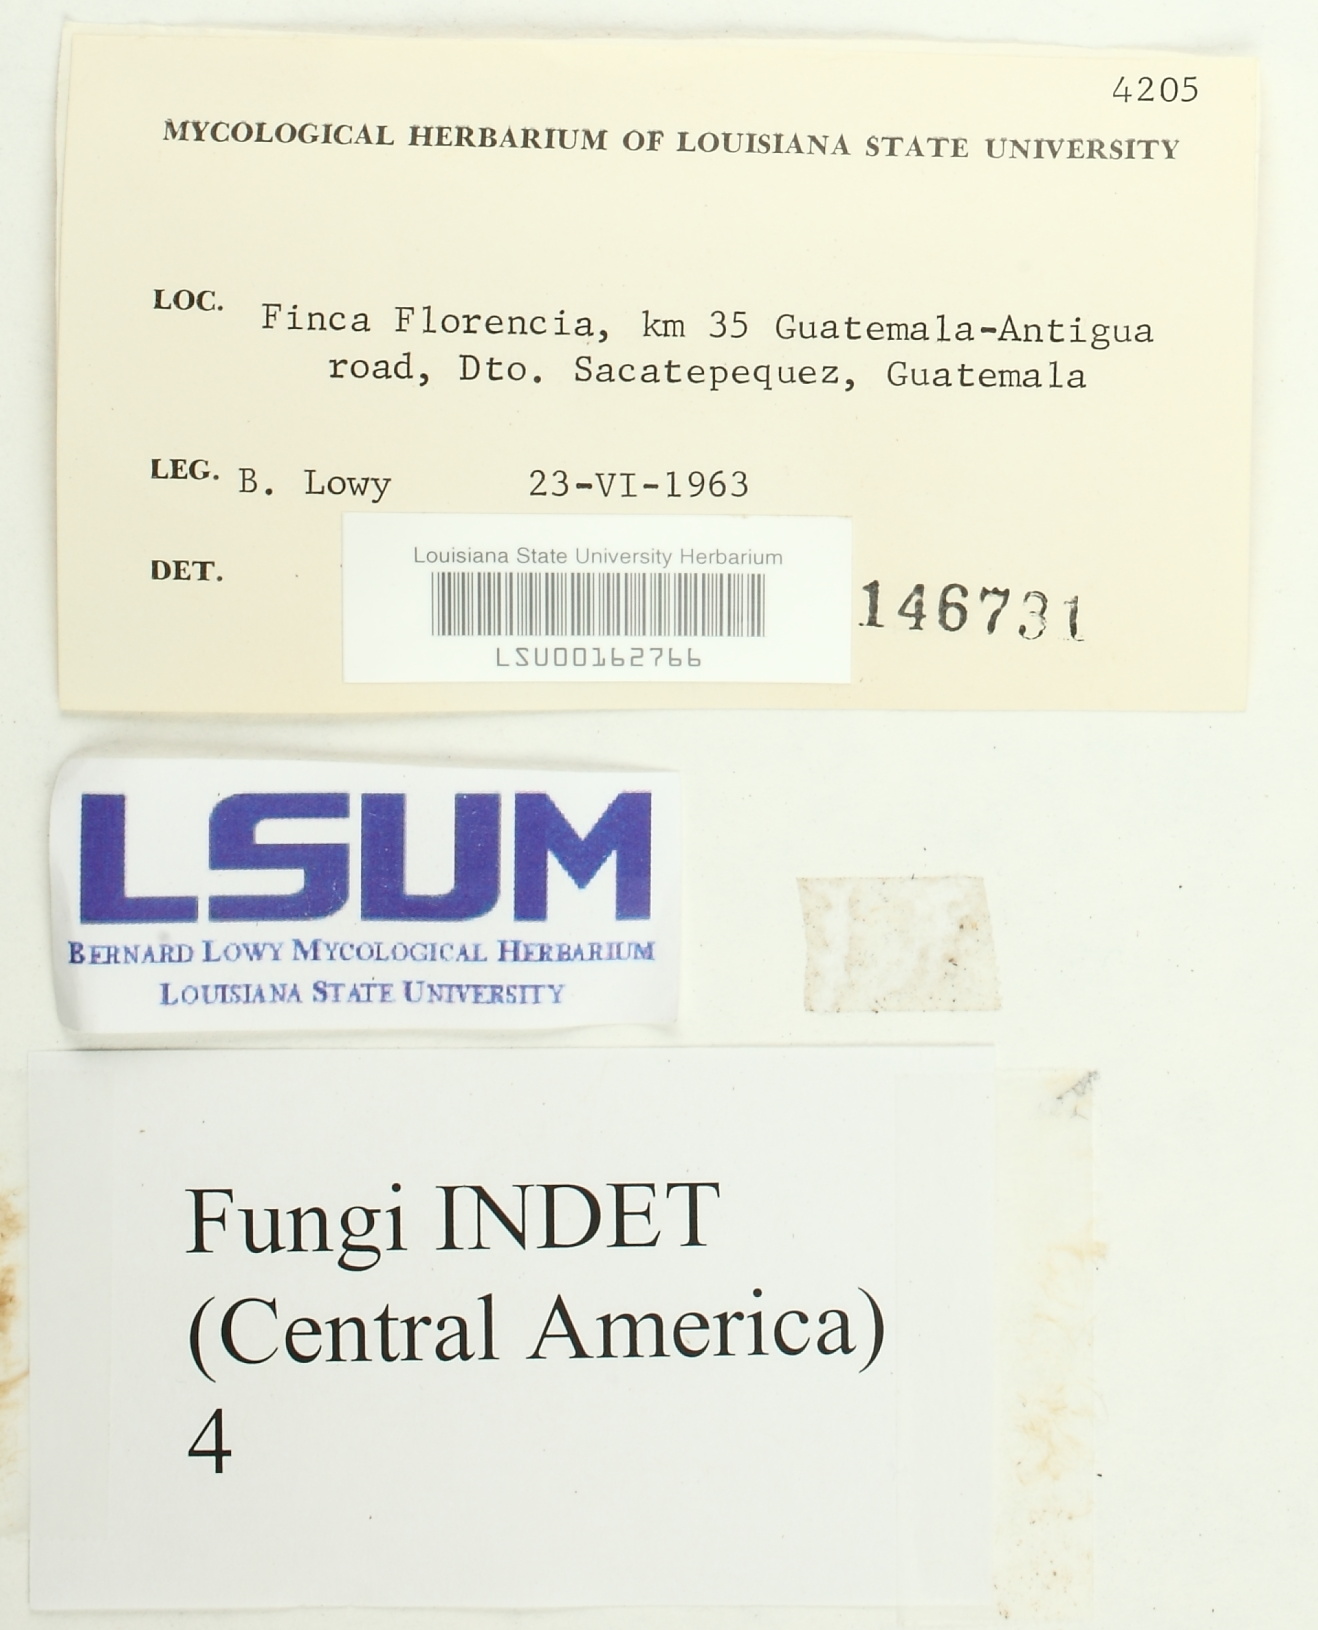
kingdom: Fungi
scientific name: Fungi
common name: Fungi
